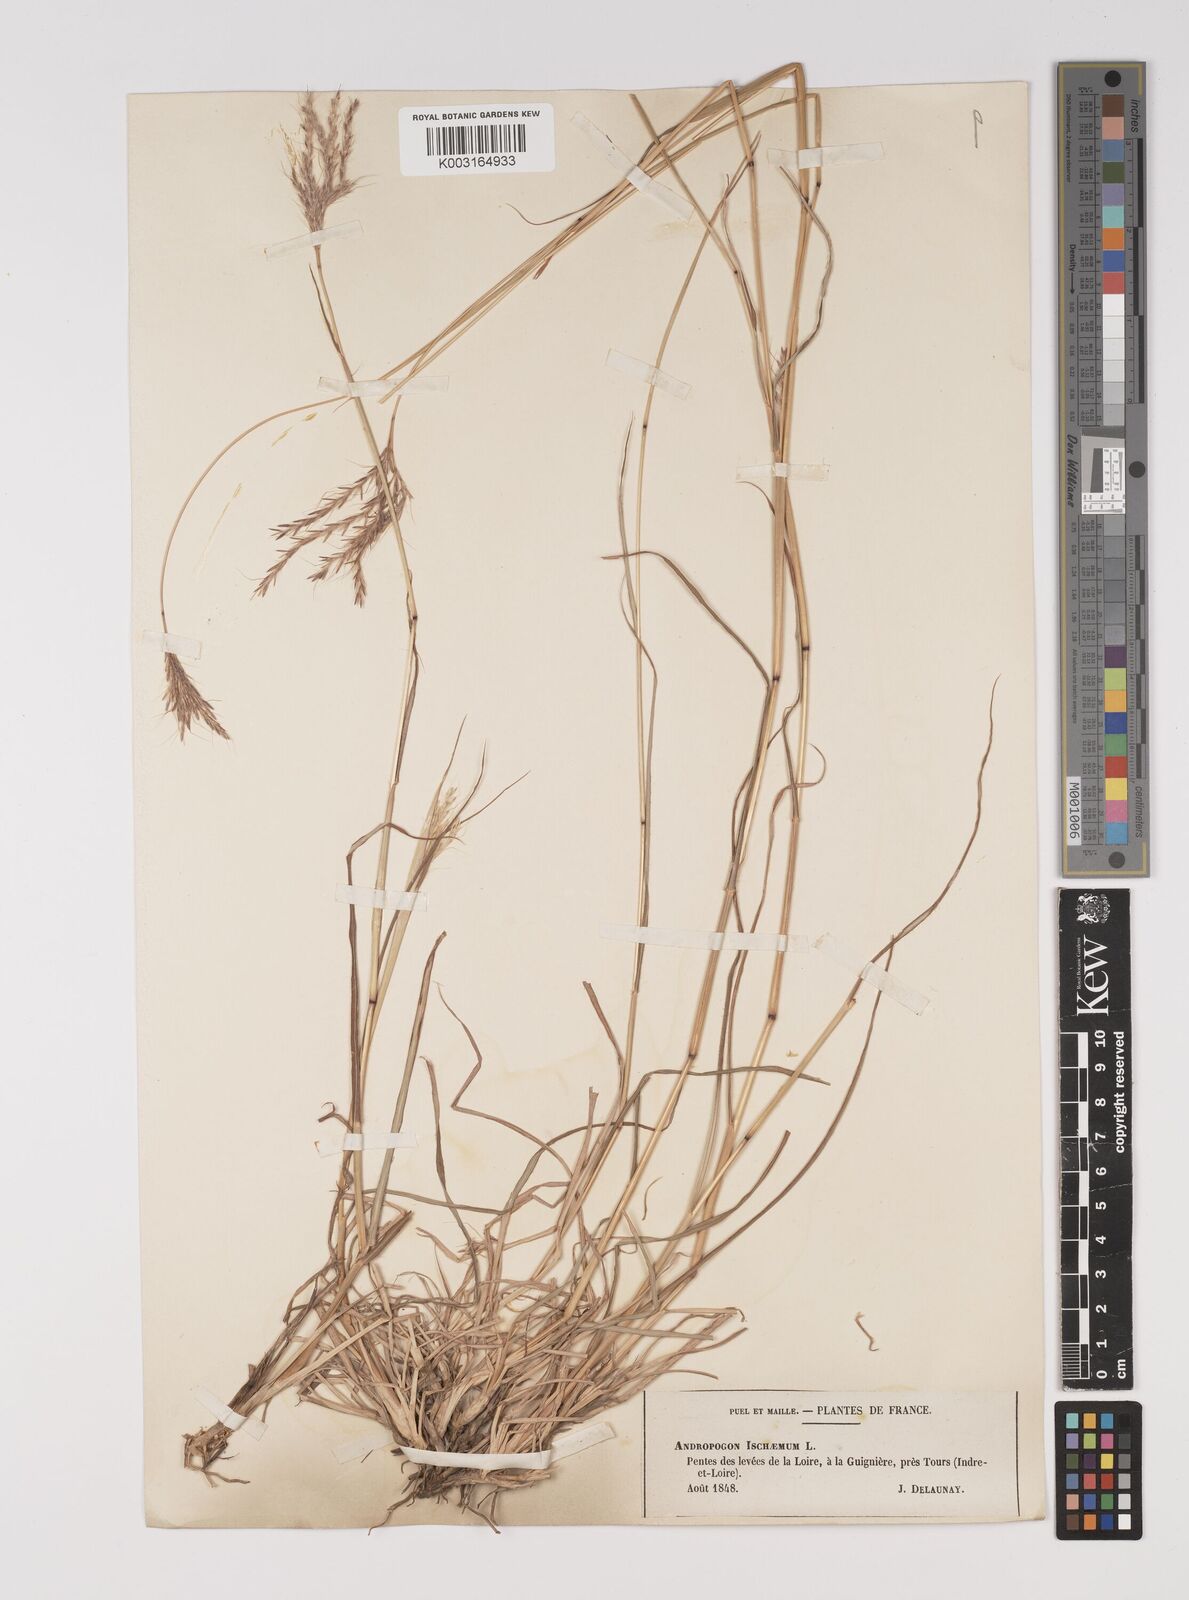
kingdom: Plantae
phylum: Tracheophyta
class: Liliopsida
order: Poales
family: Poaceae
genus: Bothriochloa
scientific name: Bothriochloa ischaemum
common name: Yellow bluestem
